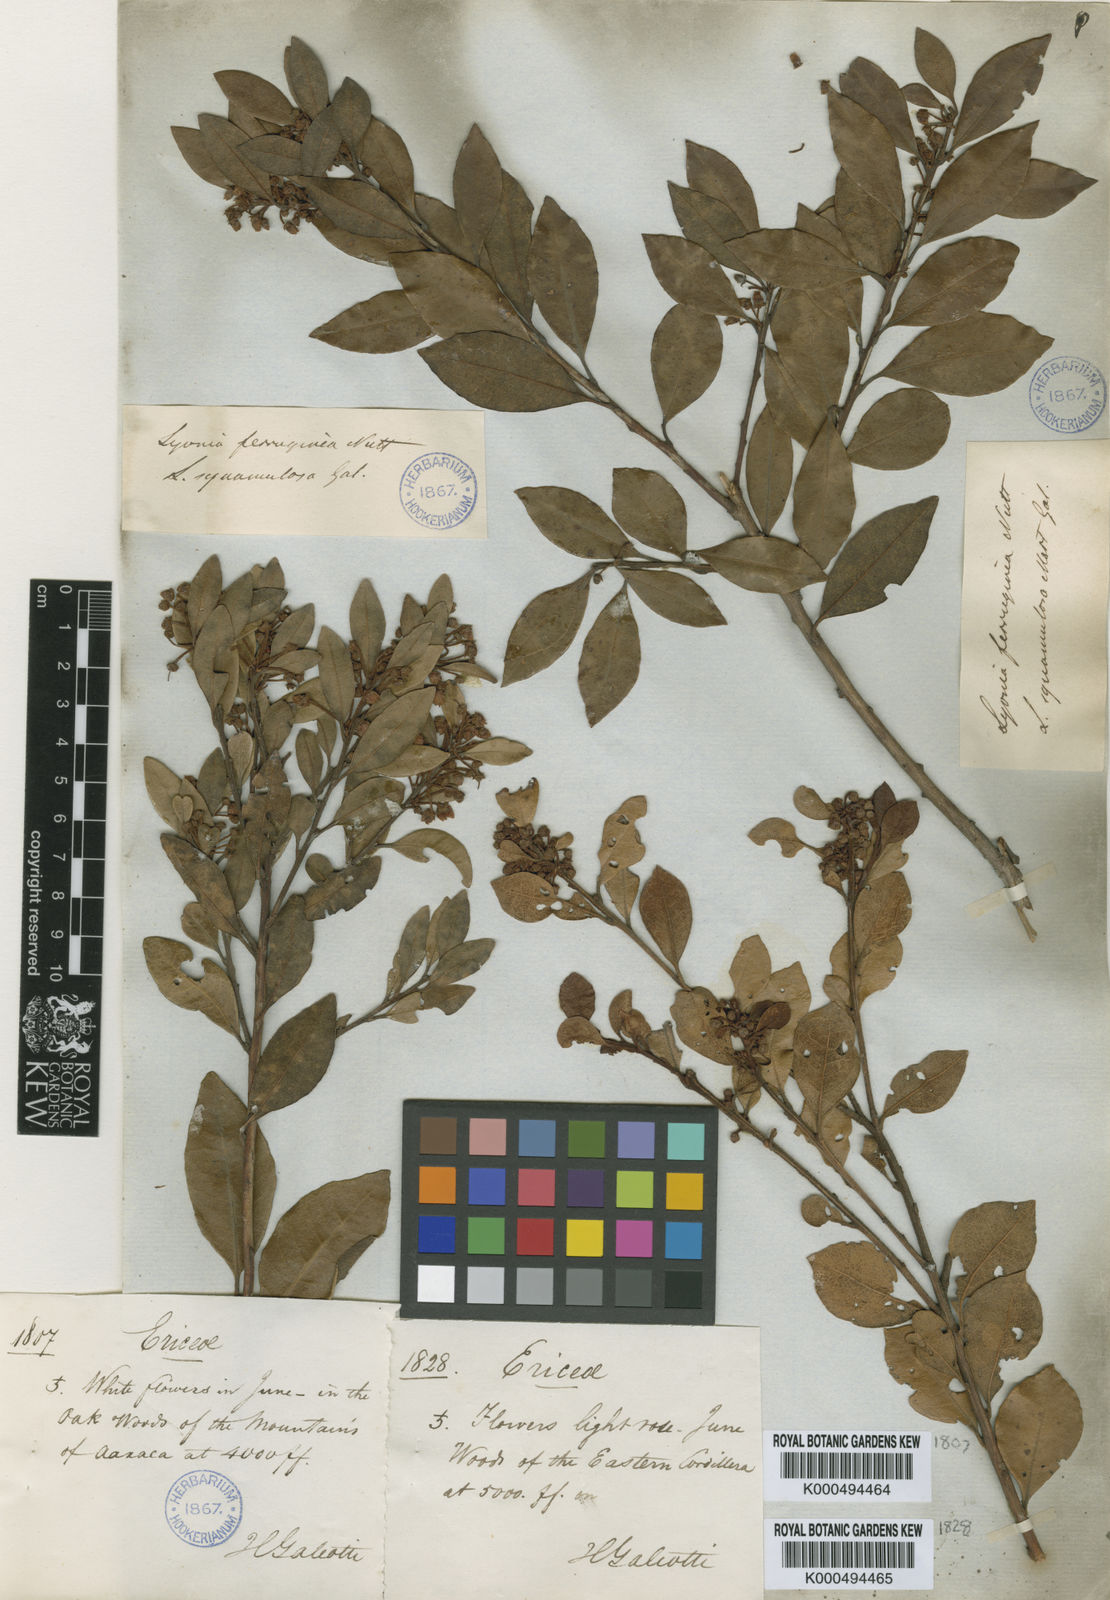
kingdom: Plantae
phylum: Tracheophyta
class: Magnoliopsida
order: Ericales
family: Ericaceae
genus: Lyonia
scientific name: Lyonia squamulosa
